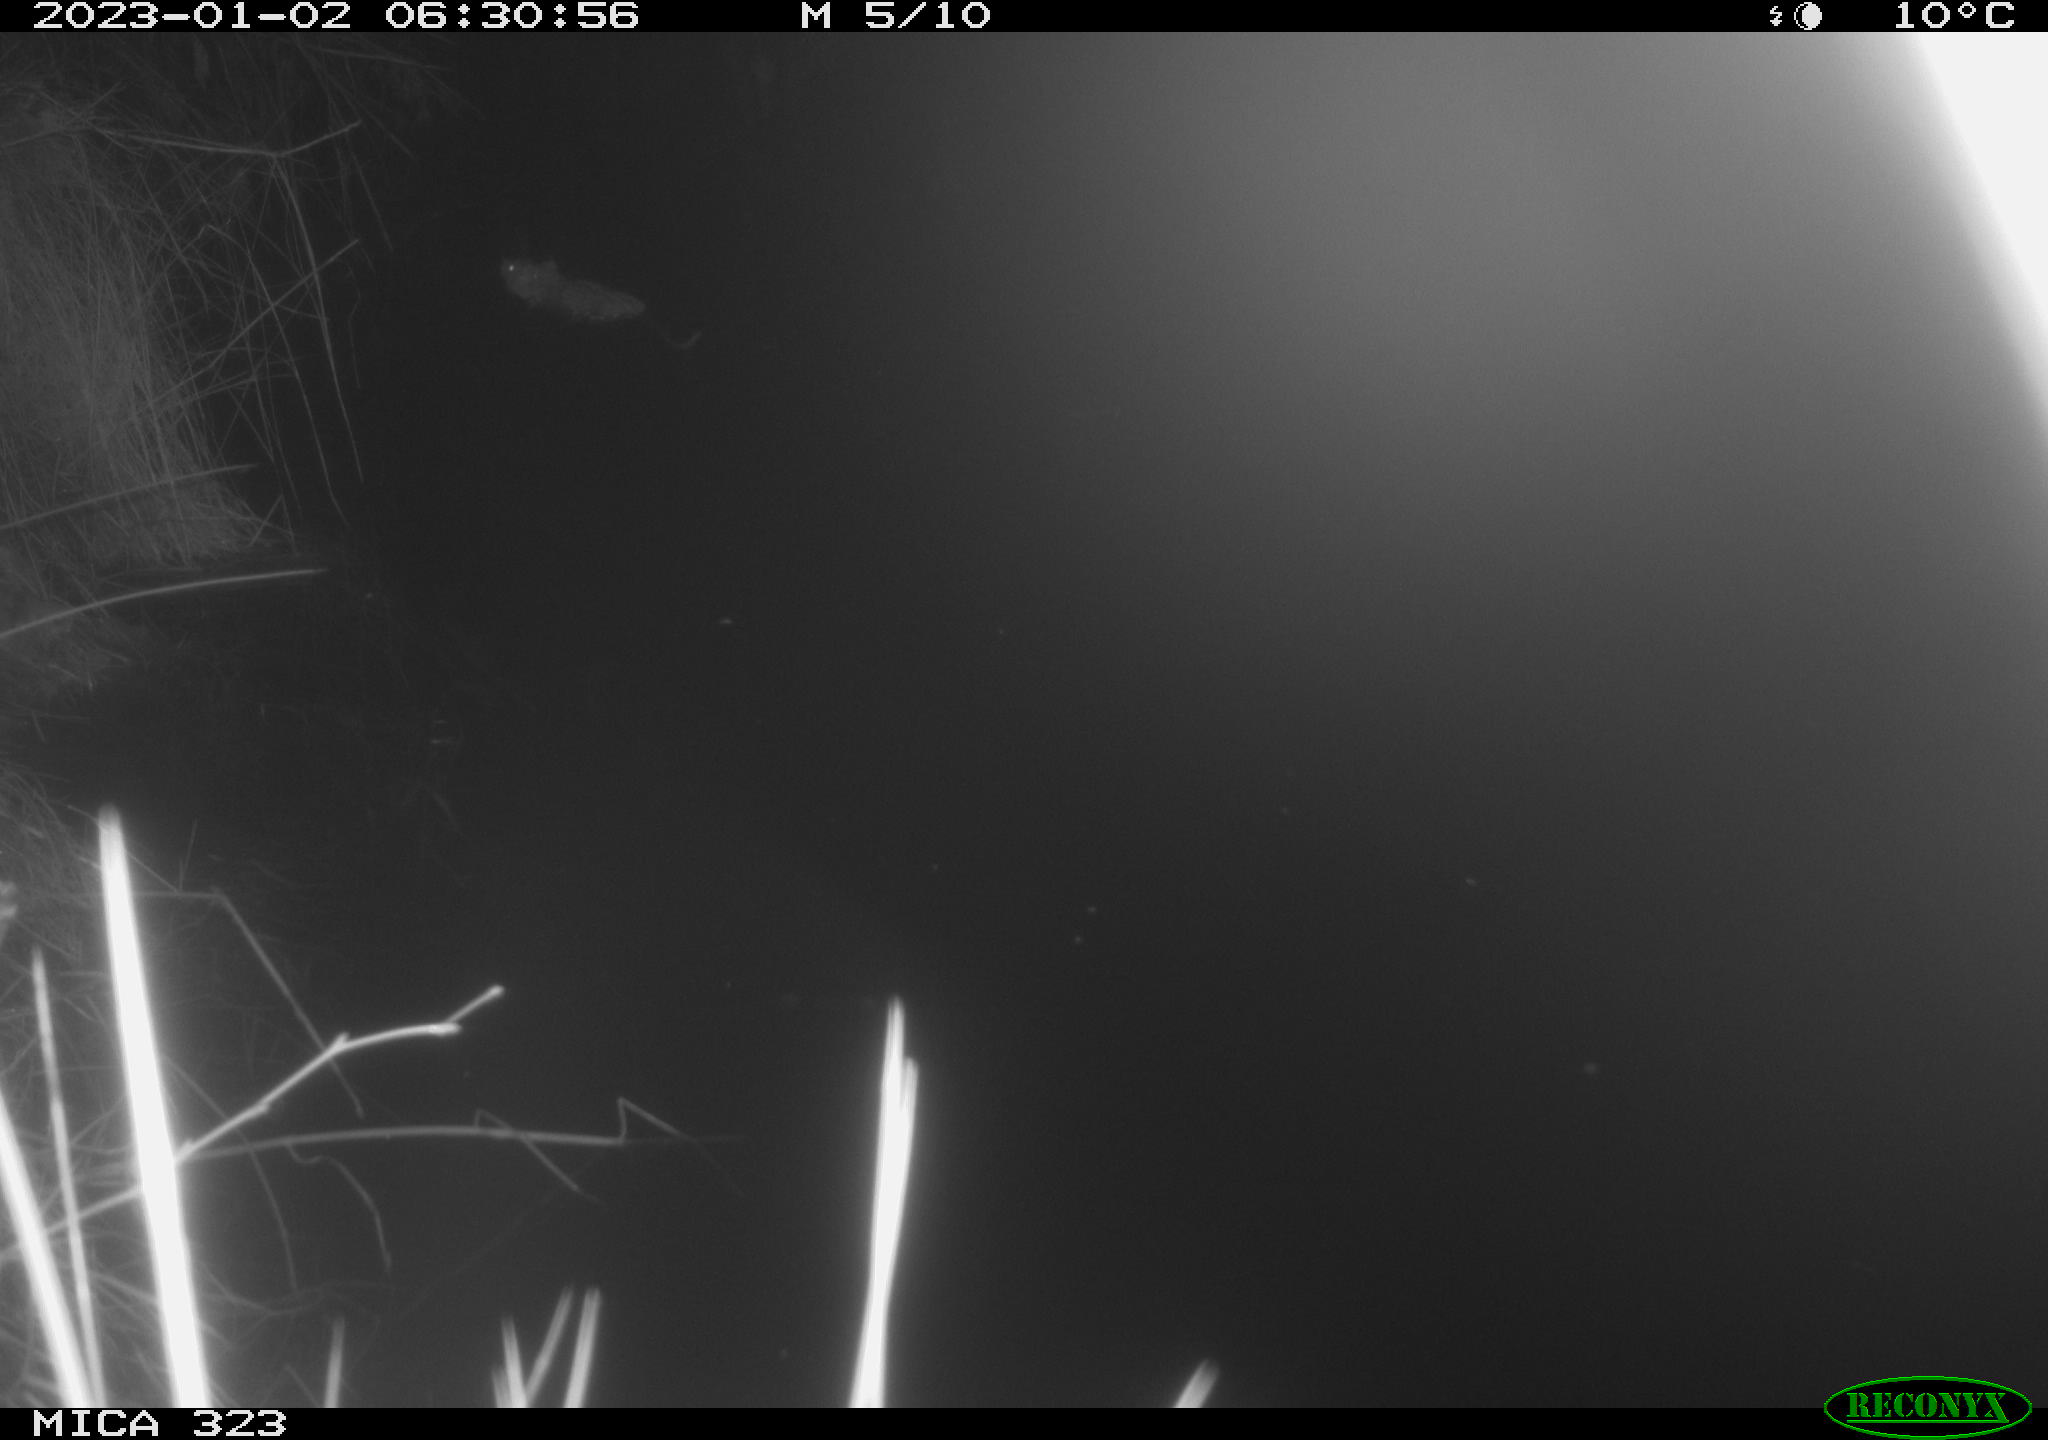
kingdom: Animalia
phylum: Chordata
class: Mammalia
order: Rodentia
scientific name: Rodentia
